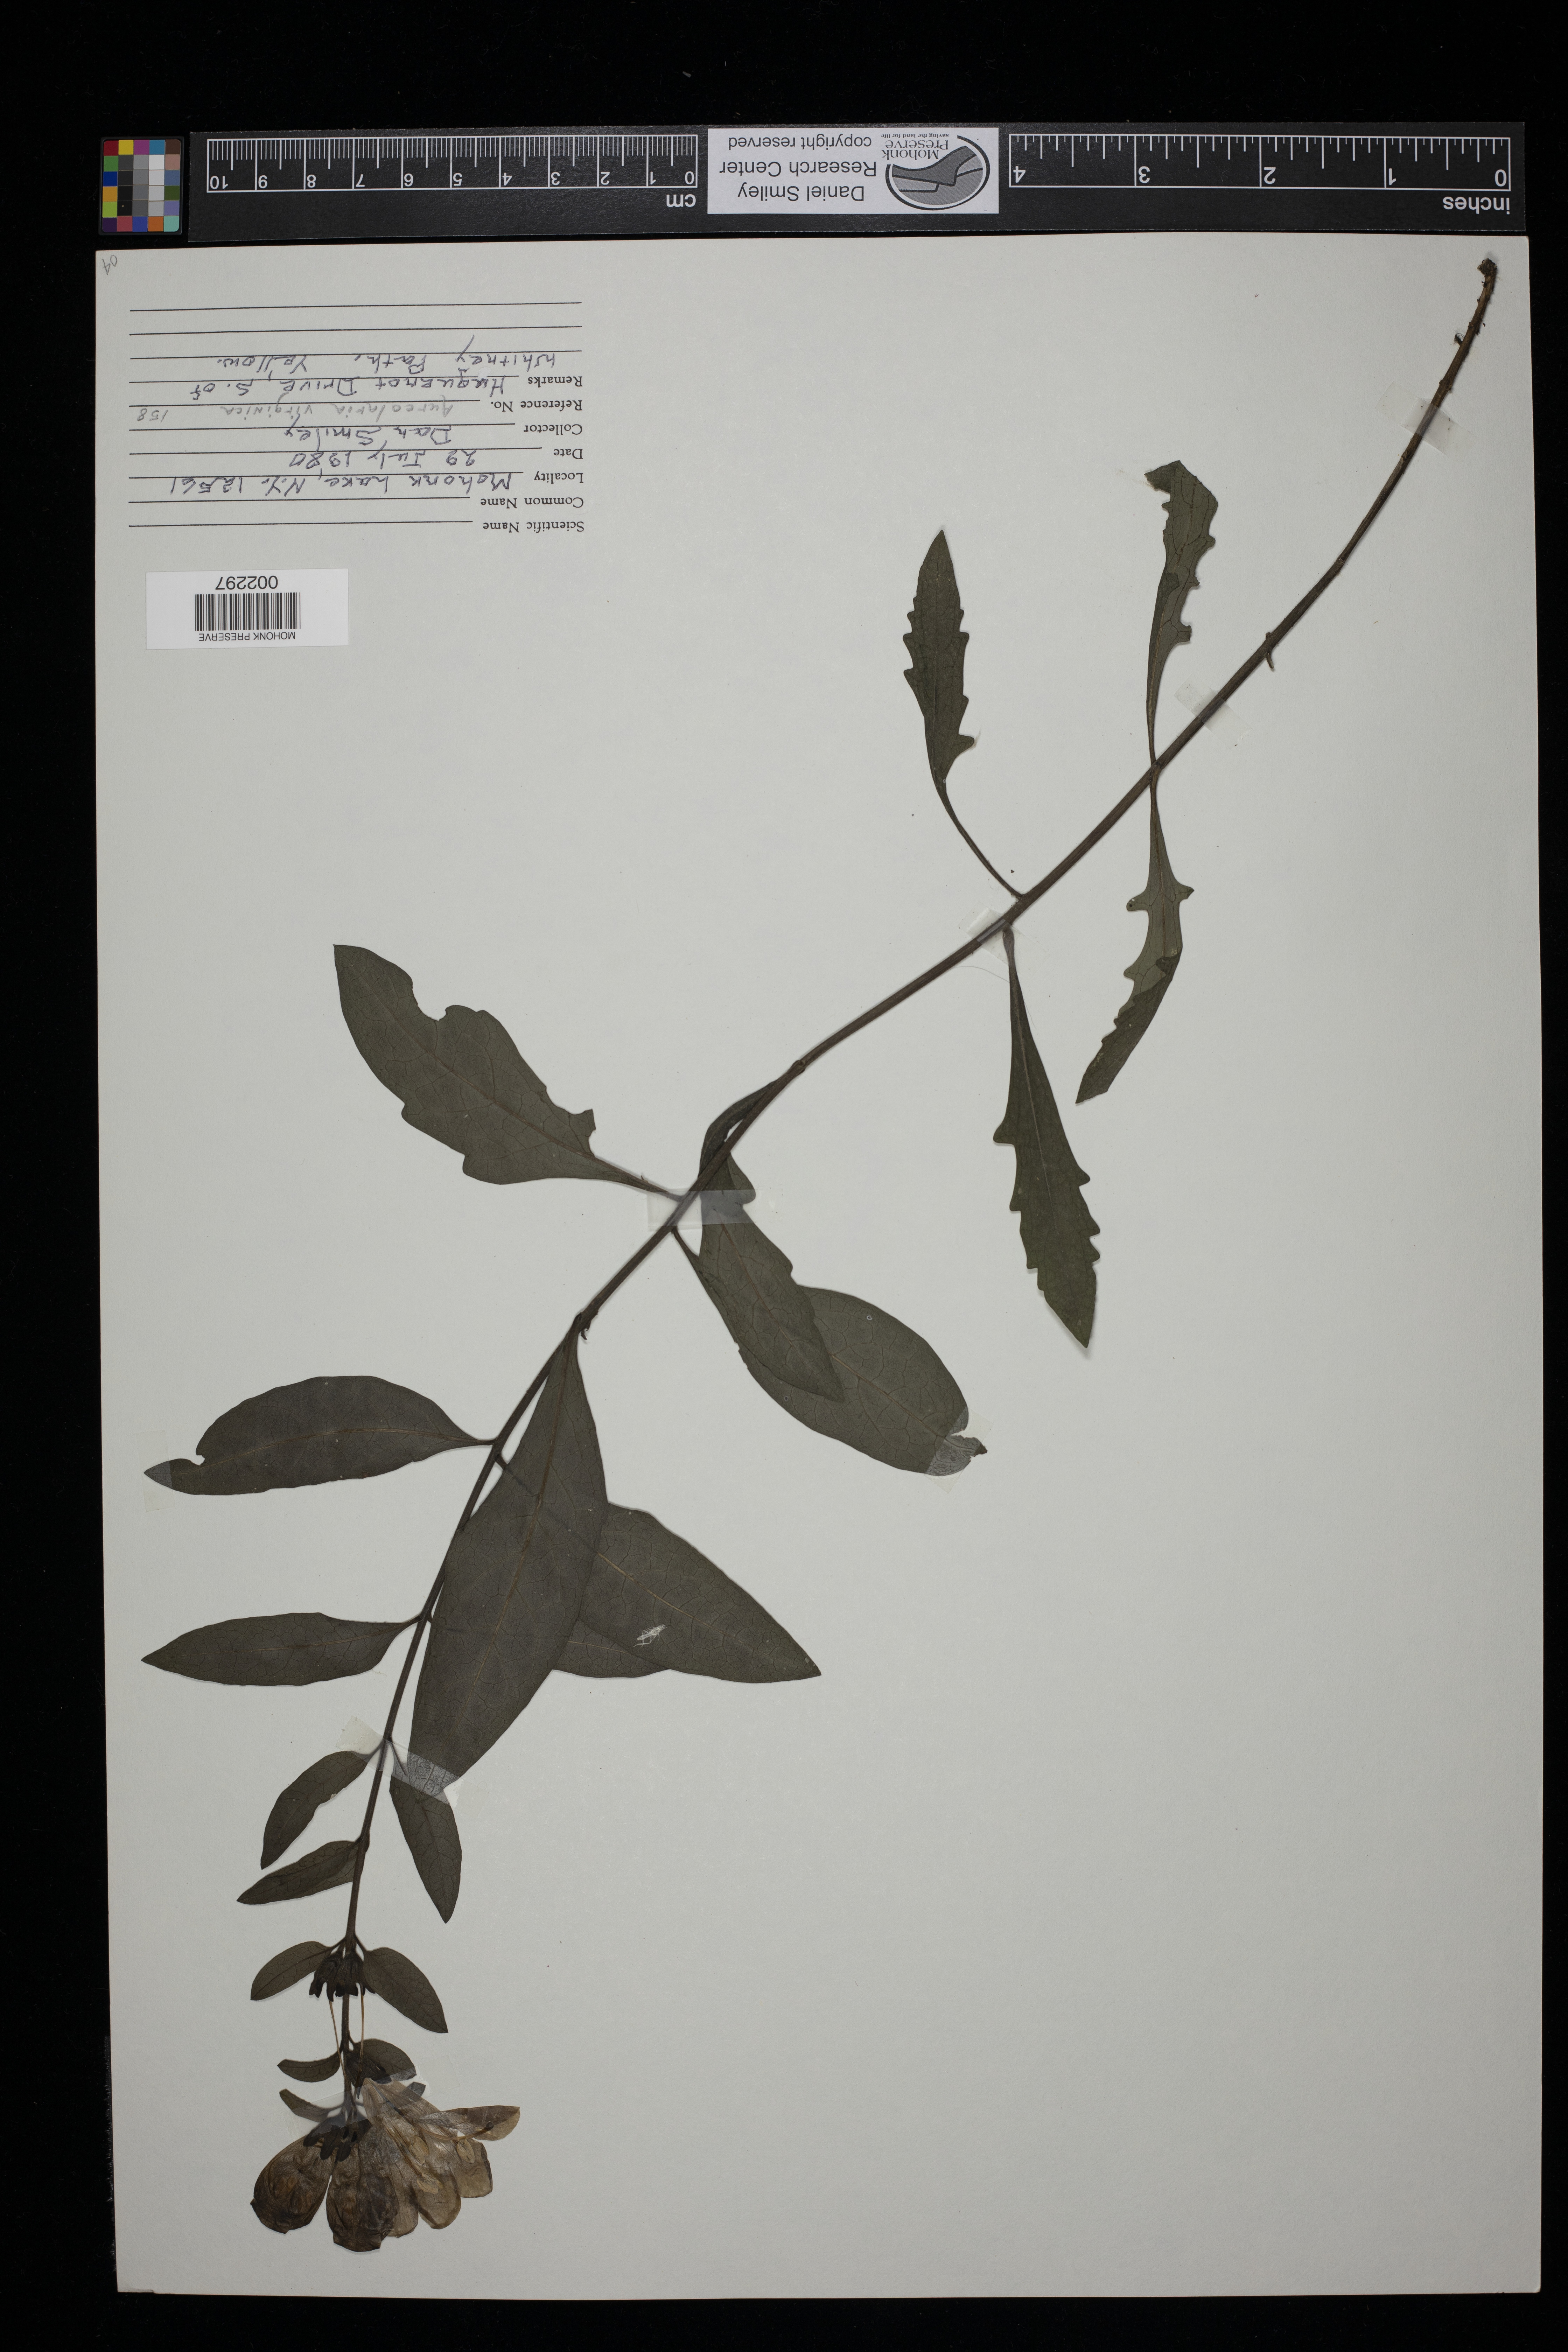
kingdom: Plantae
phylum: Tracheophyta
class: Magnoliopsida
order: Lamiales
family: Orobanchaceae
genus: Aureolaria
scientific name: Aureolaria virginica
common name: Downy false foxglove
